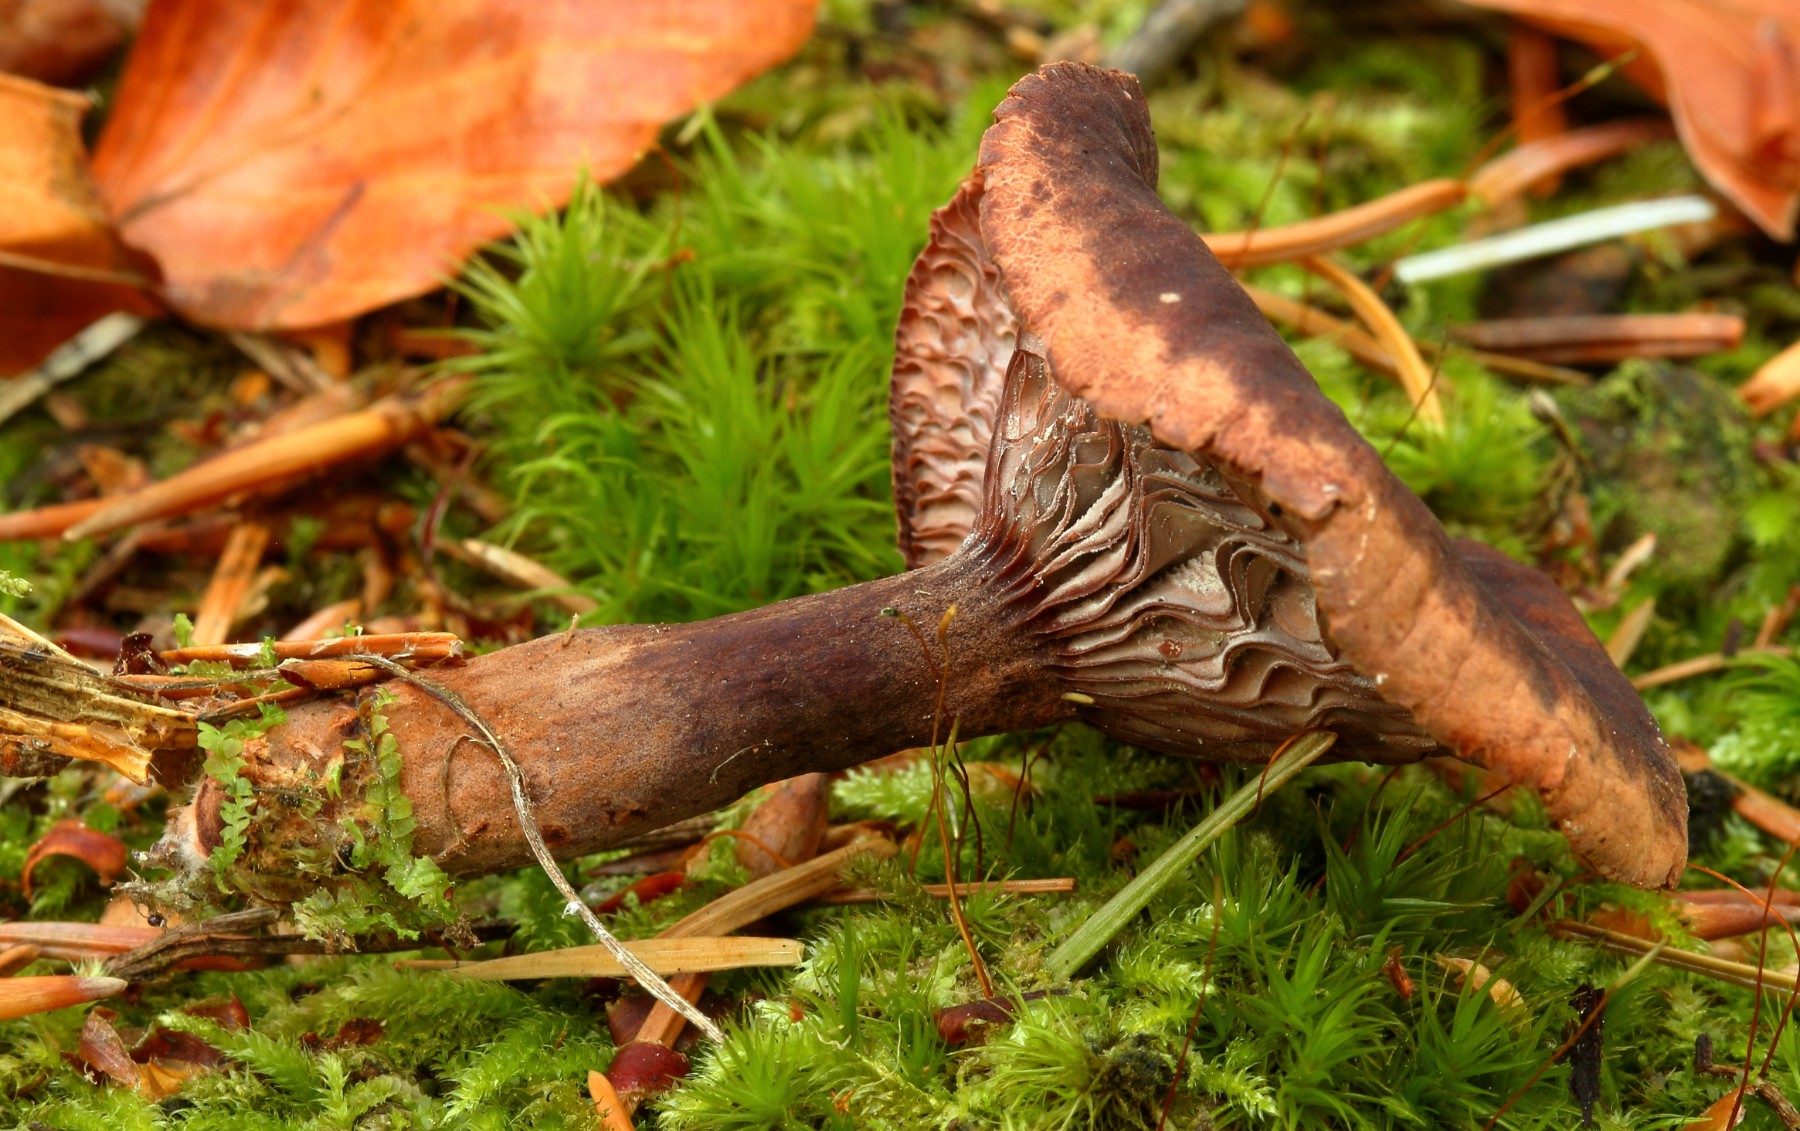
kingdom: Fungi
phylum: Basidiomycota
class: Agaricomycetes
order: Russulales
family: Russulaceae
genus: Lactarius
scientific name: Lactarius camphoratus
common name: kamfer-mælkehat
